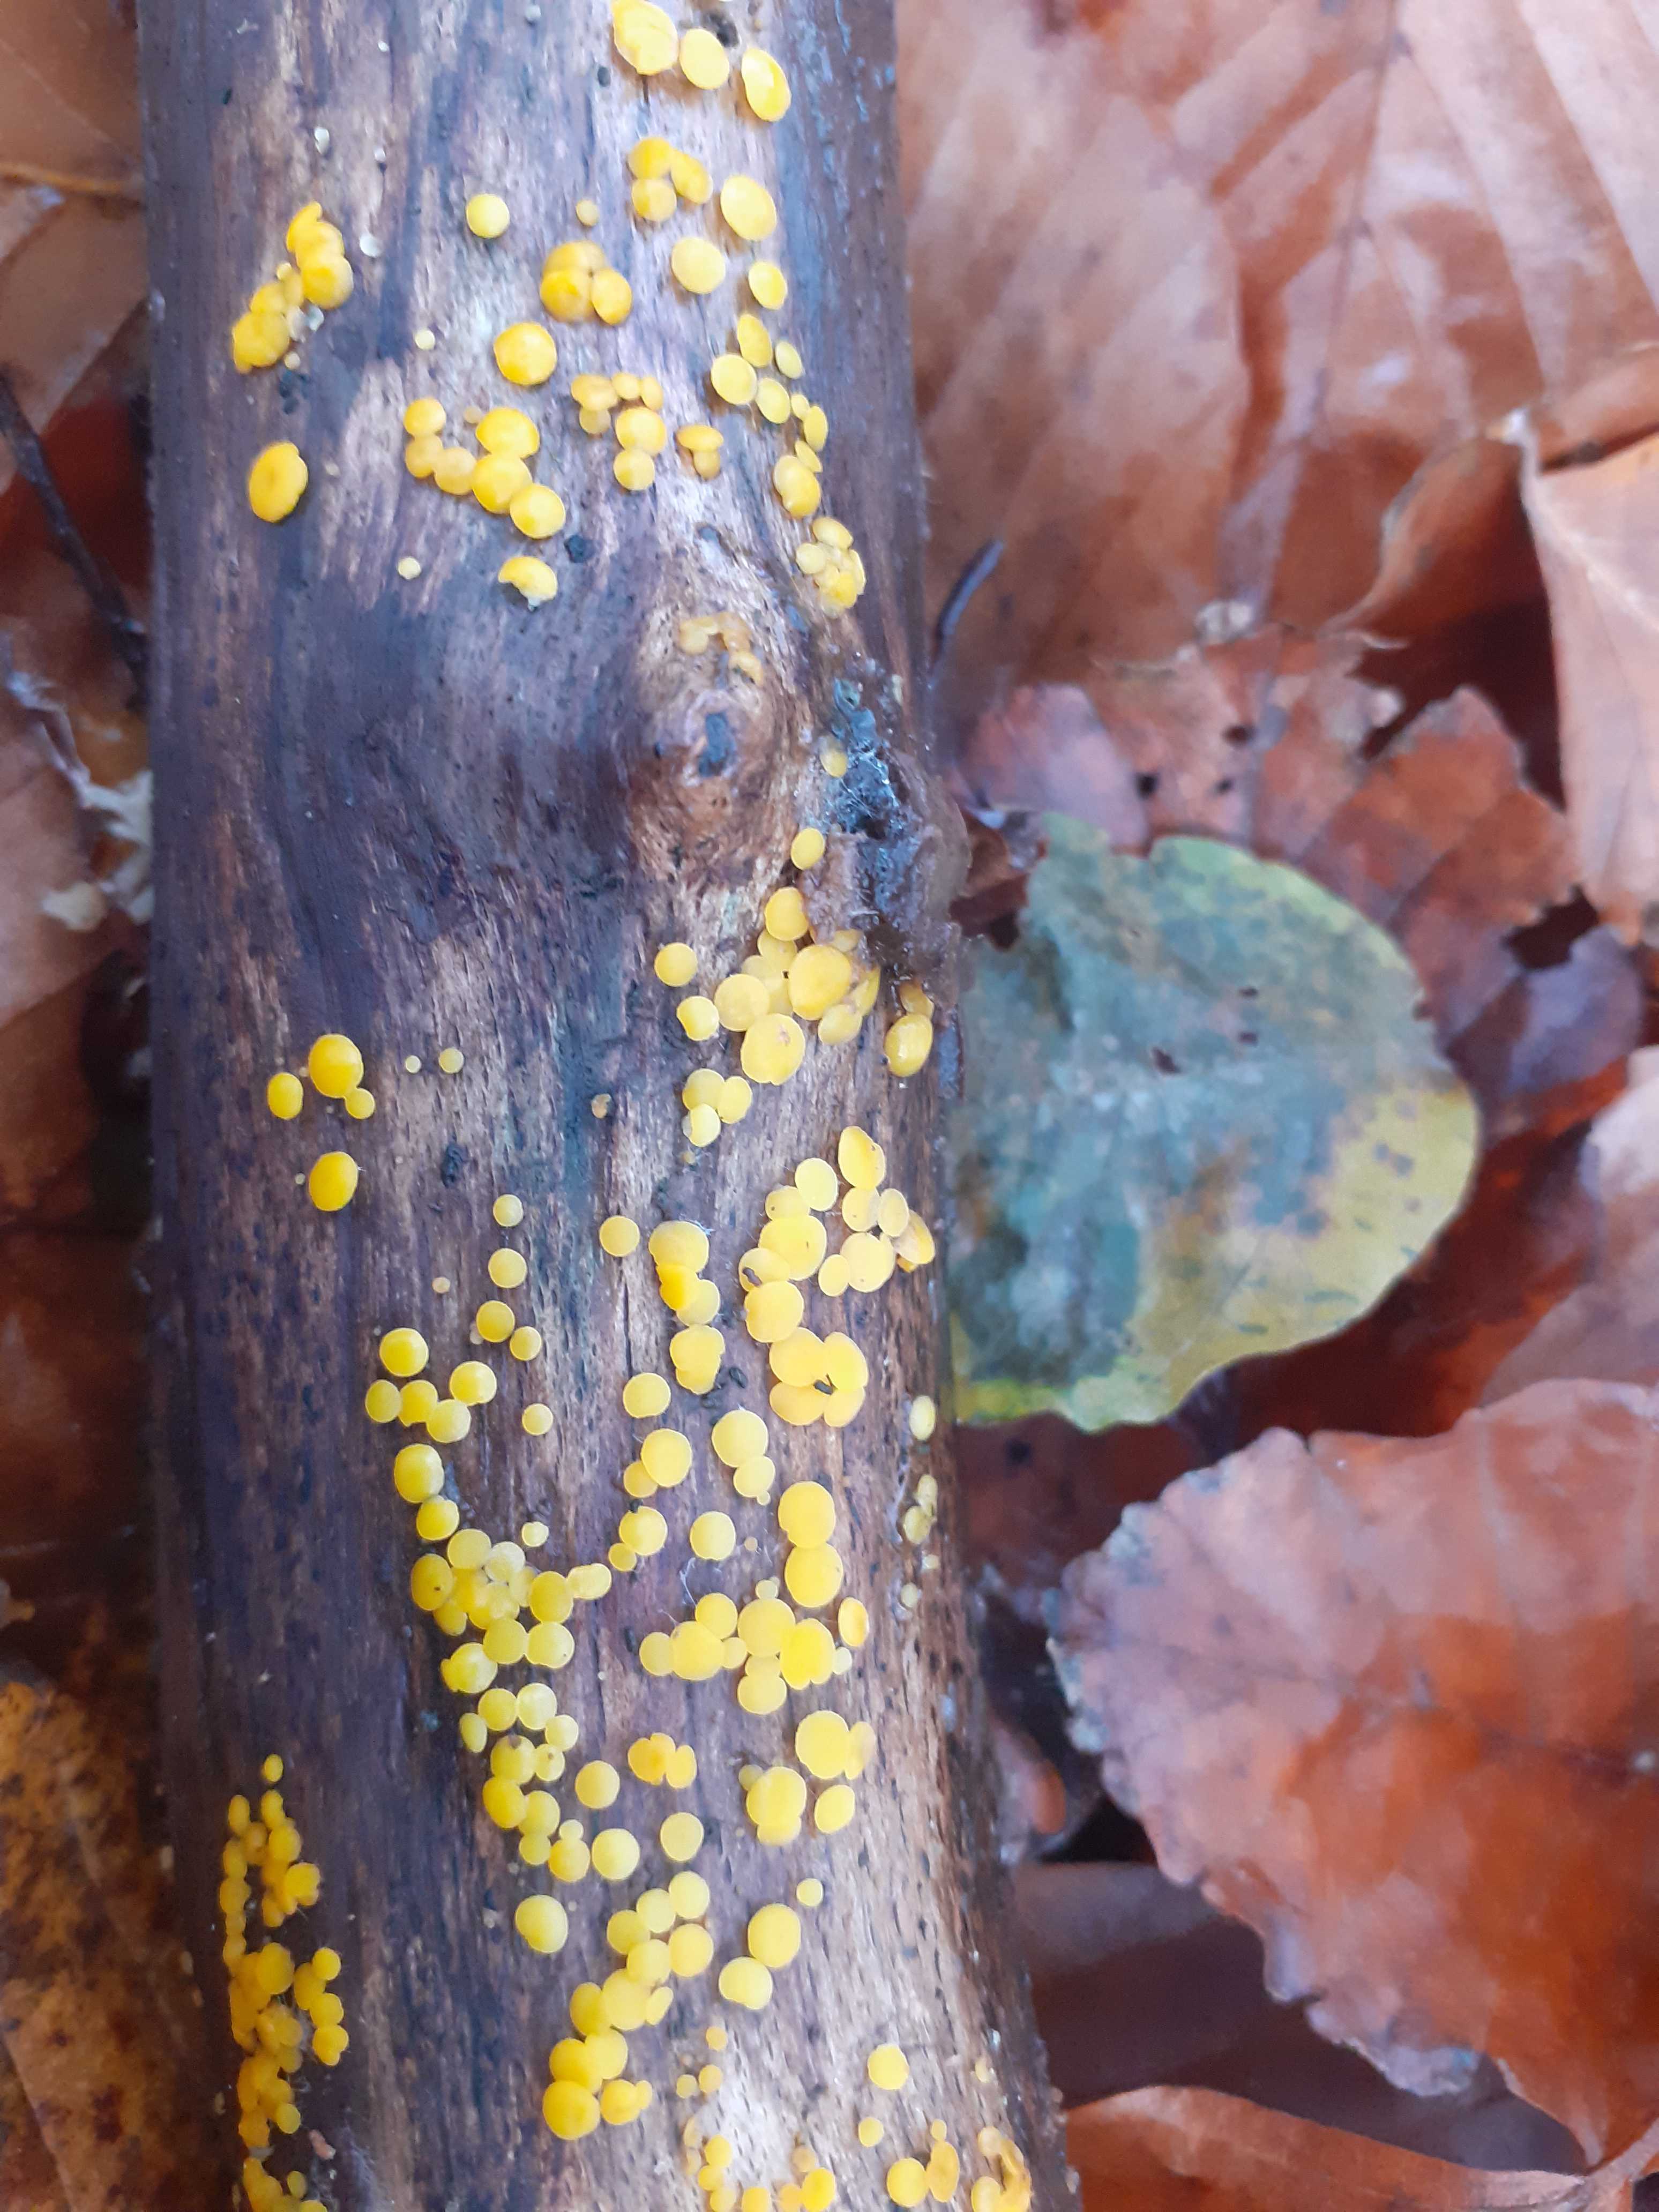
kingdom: Fungi
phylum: Ascomycota
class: Leotiomycetes
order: Helotiales
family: Pezizellaceae
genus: Calycina
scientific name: Calycina citrina
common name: almindelig gulskive
